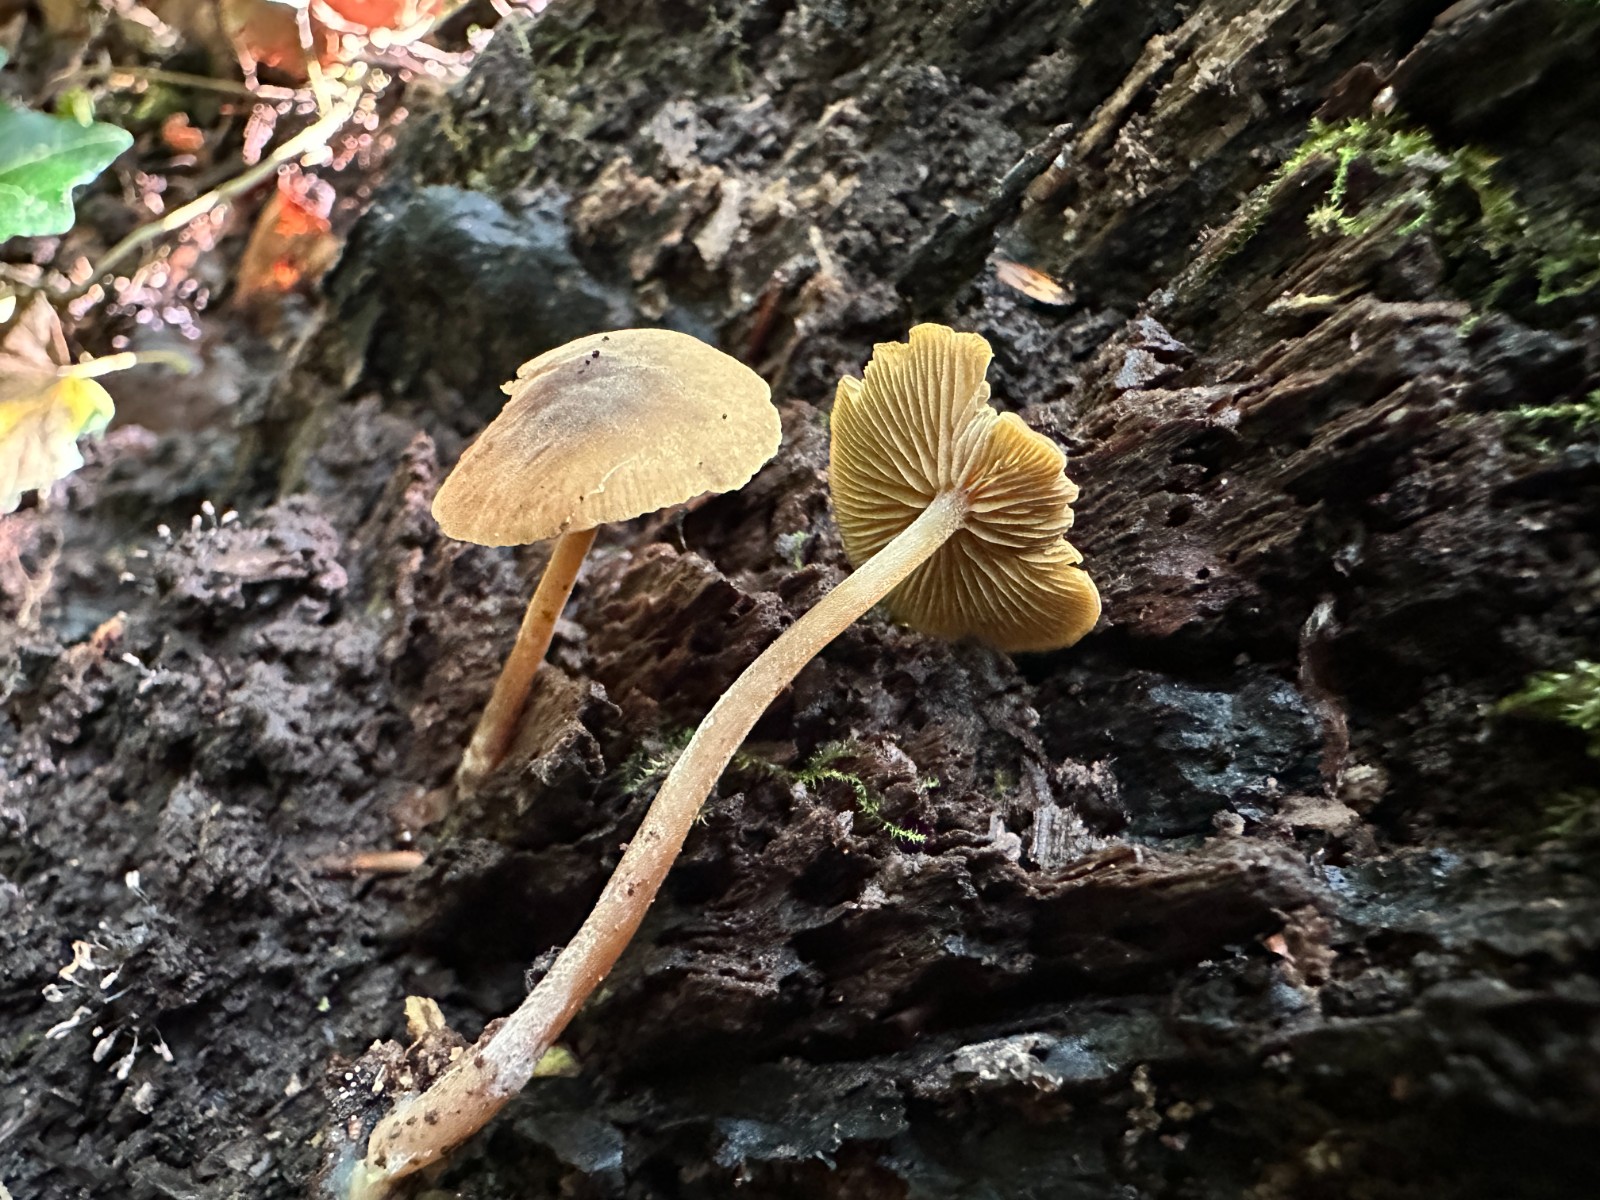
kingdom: Fungi
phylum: Basidiomycota
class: Agaricomycetes
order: Agaricales
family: Crepidotaceae
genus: Simocybe
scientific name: Simocybe centunculus
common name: enlig skyggehat
